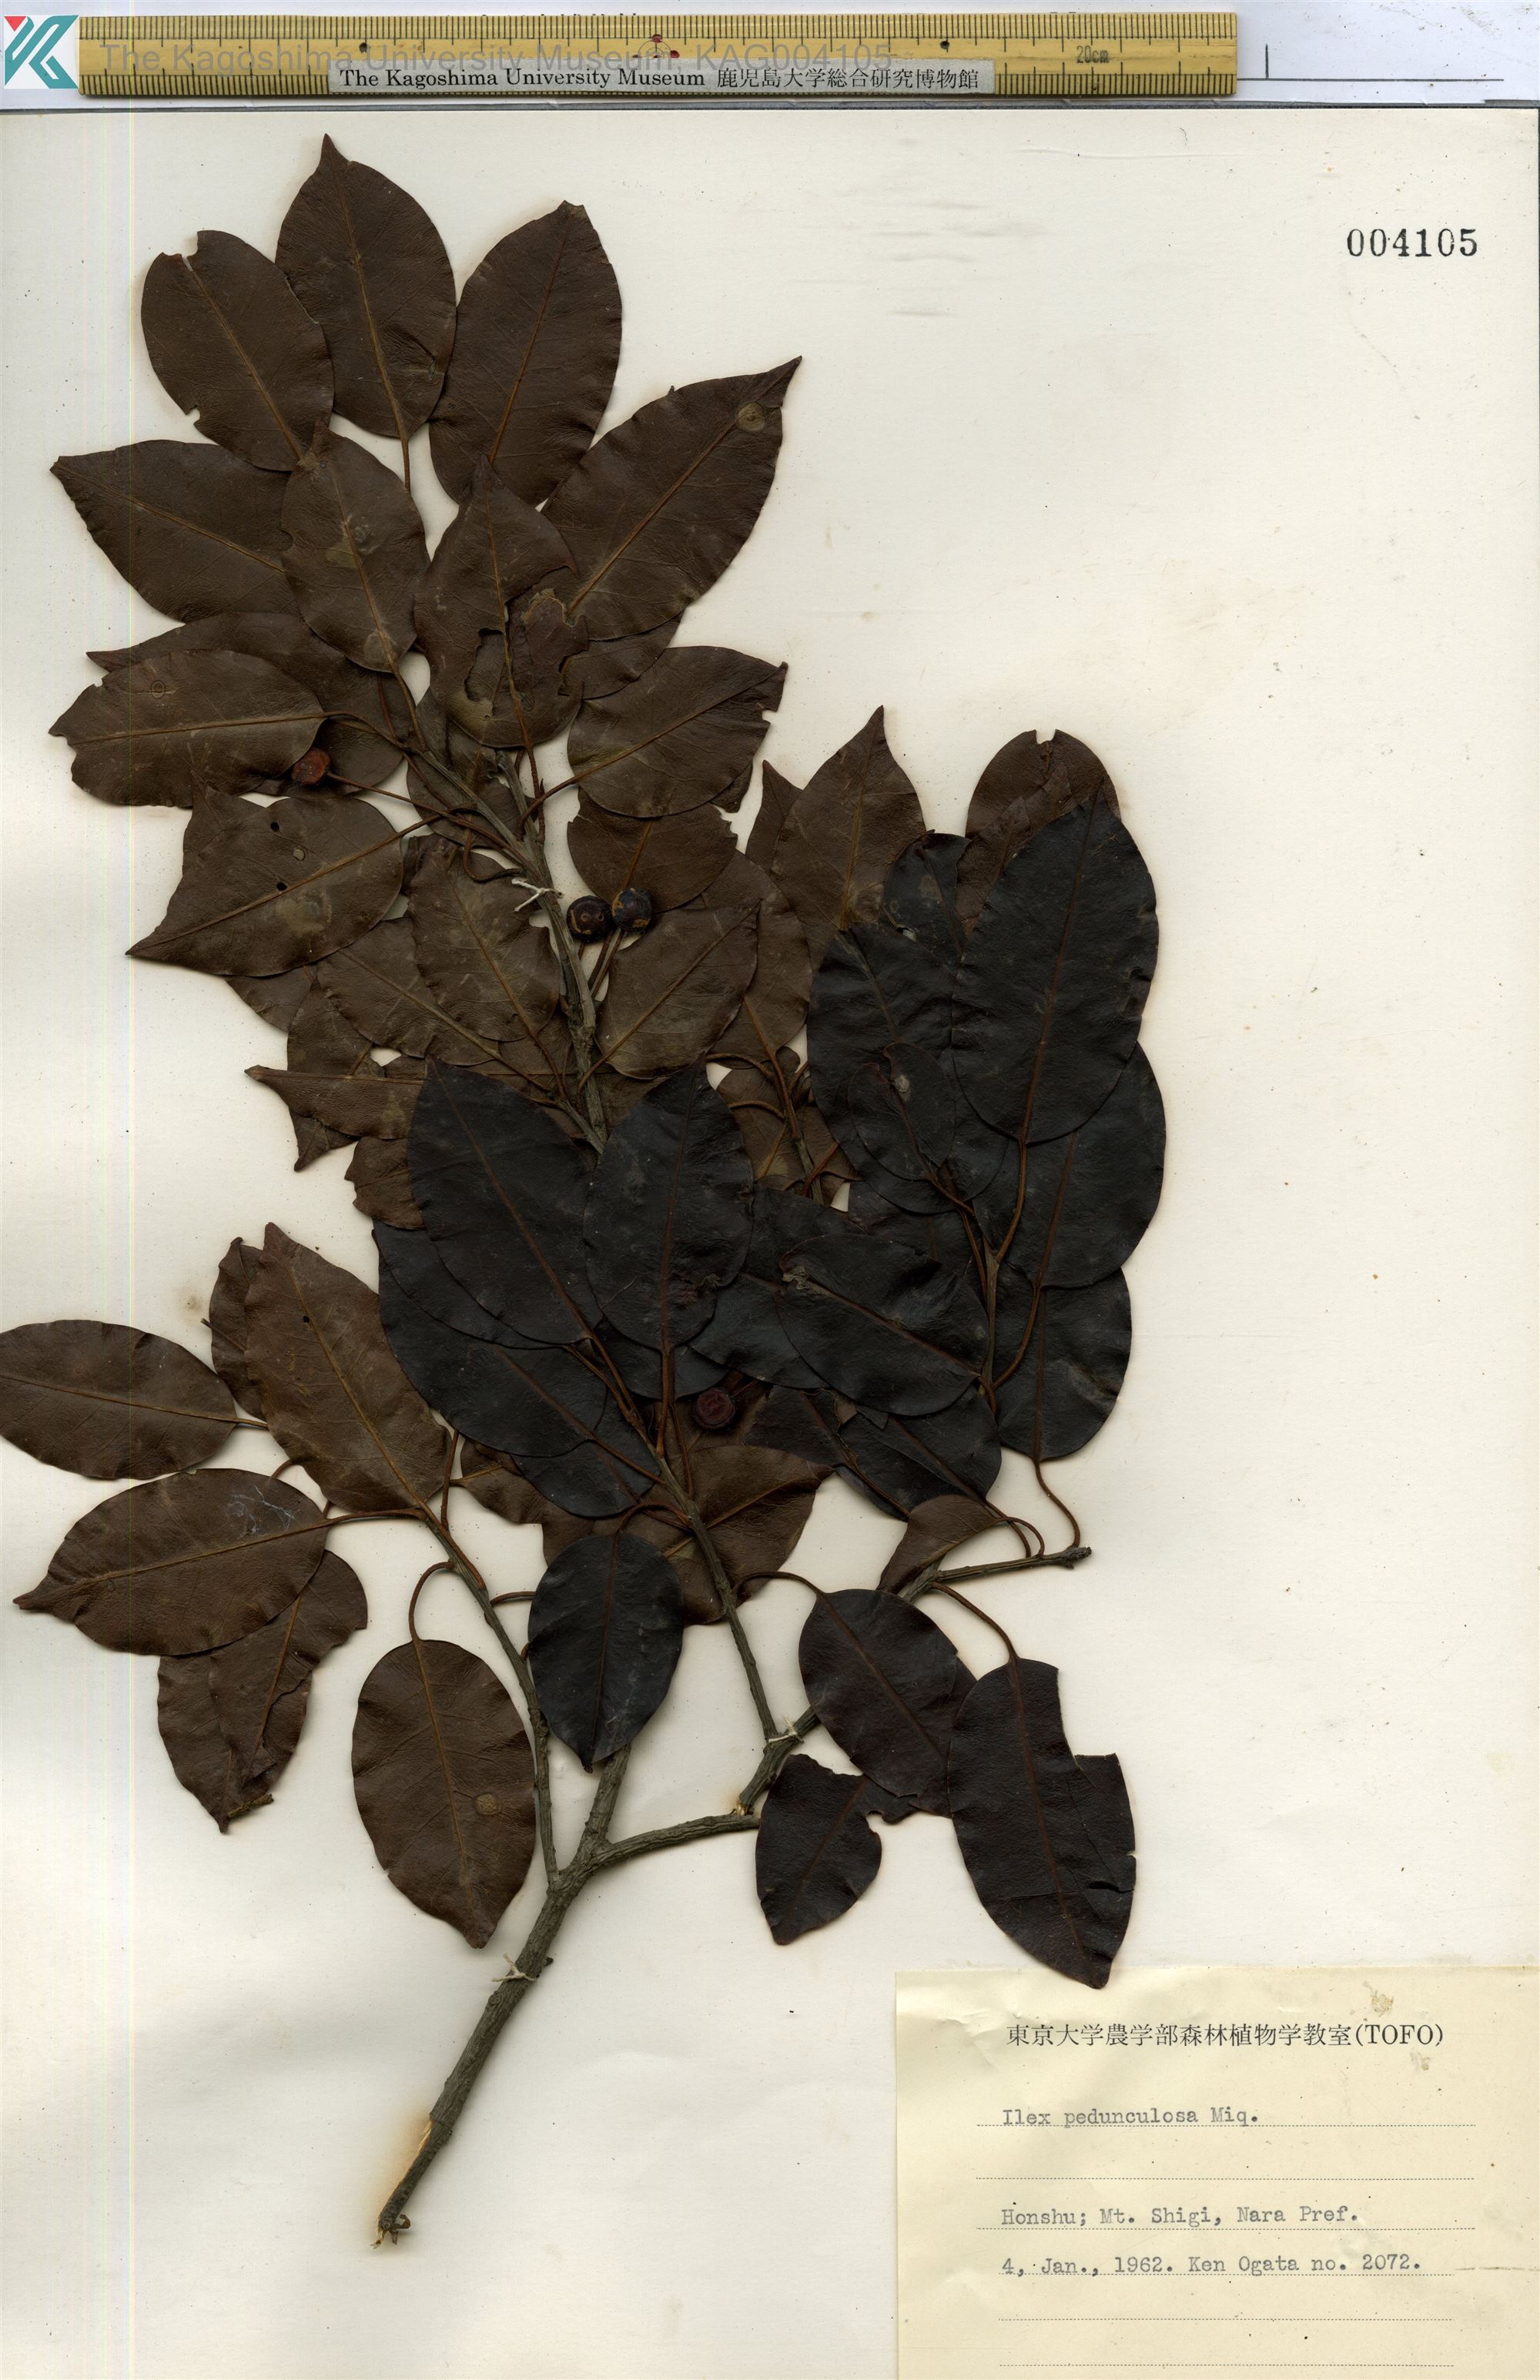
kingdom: Plantae
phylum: Tracheophyta
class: Magnoliopsida
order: Aquifoliales
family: Aquifoliaceae
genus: Ilex
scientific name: Ilex pedunculosa
